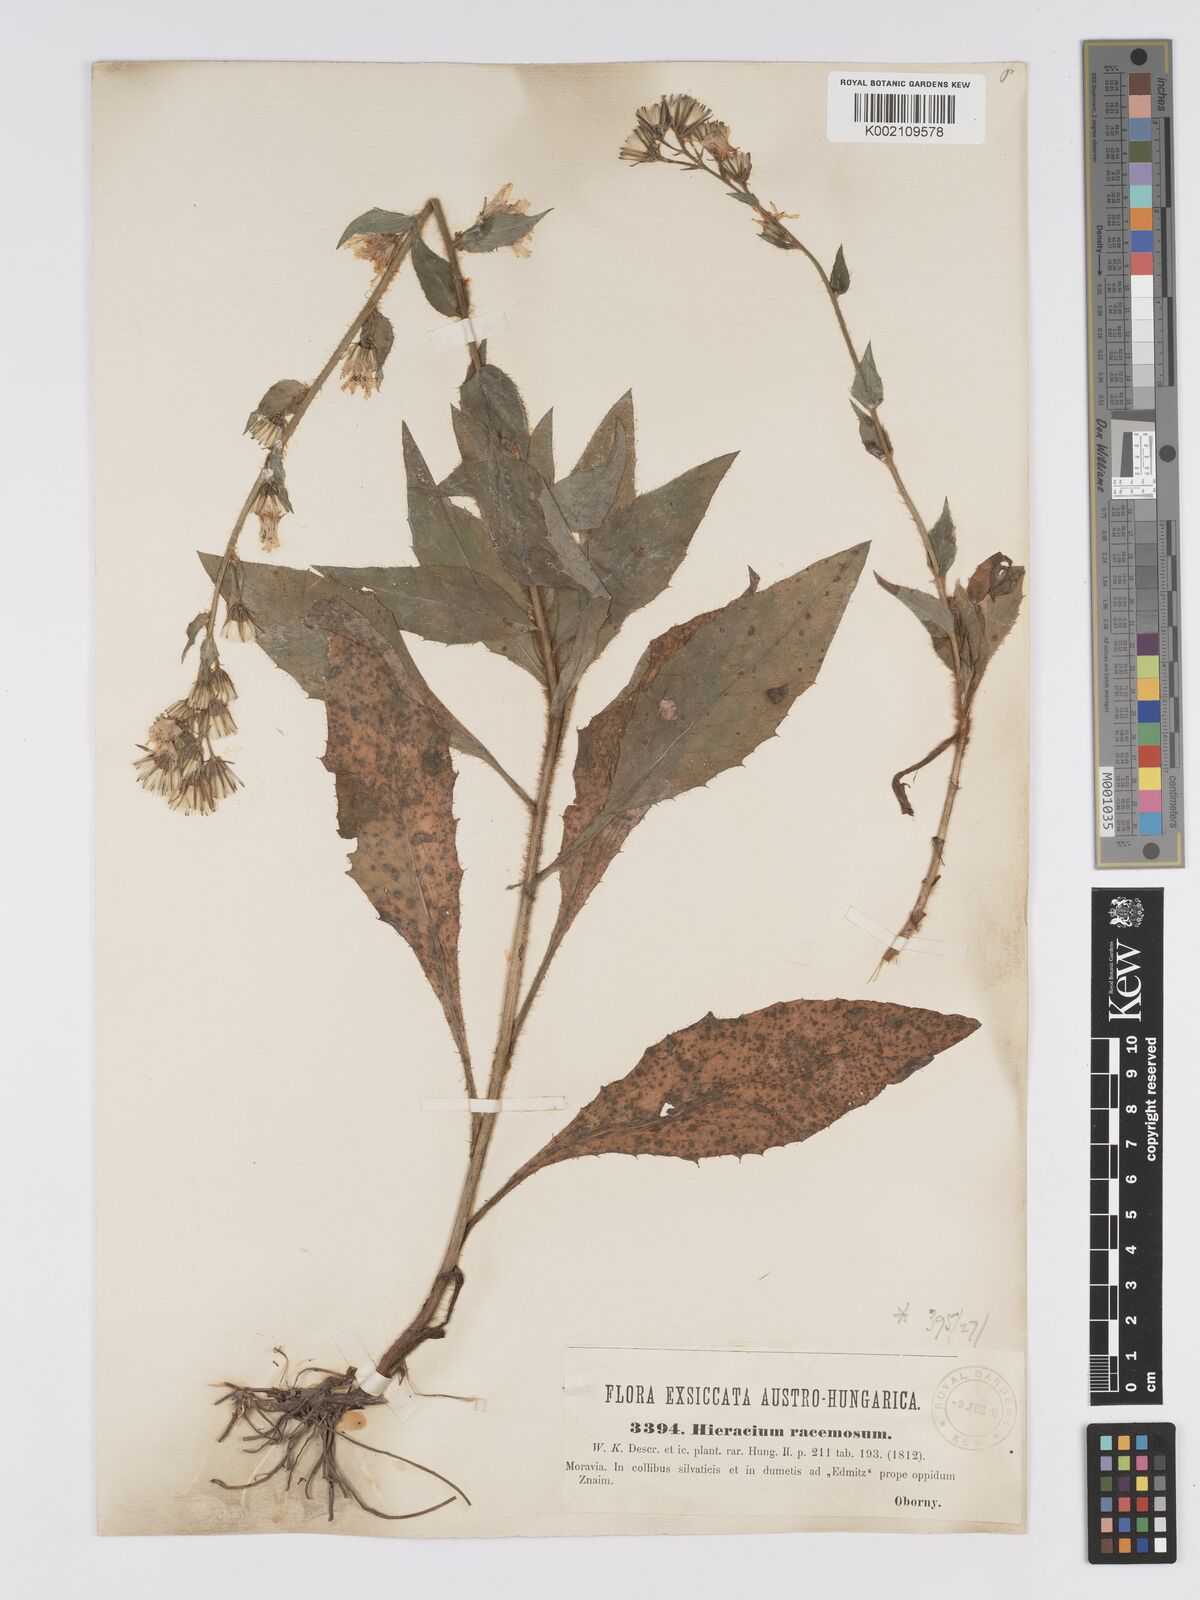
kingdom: Plantae
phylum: Tracheophyta
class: Magnoliopsida
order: Asterales
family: Asteraceae
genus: Hieracium
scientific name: Hieracium racemosum
